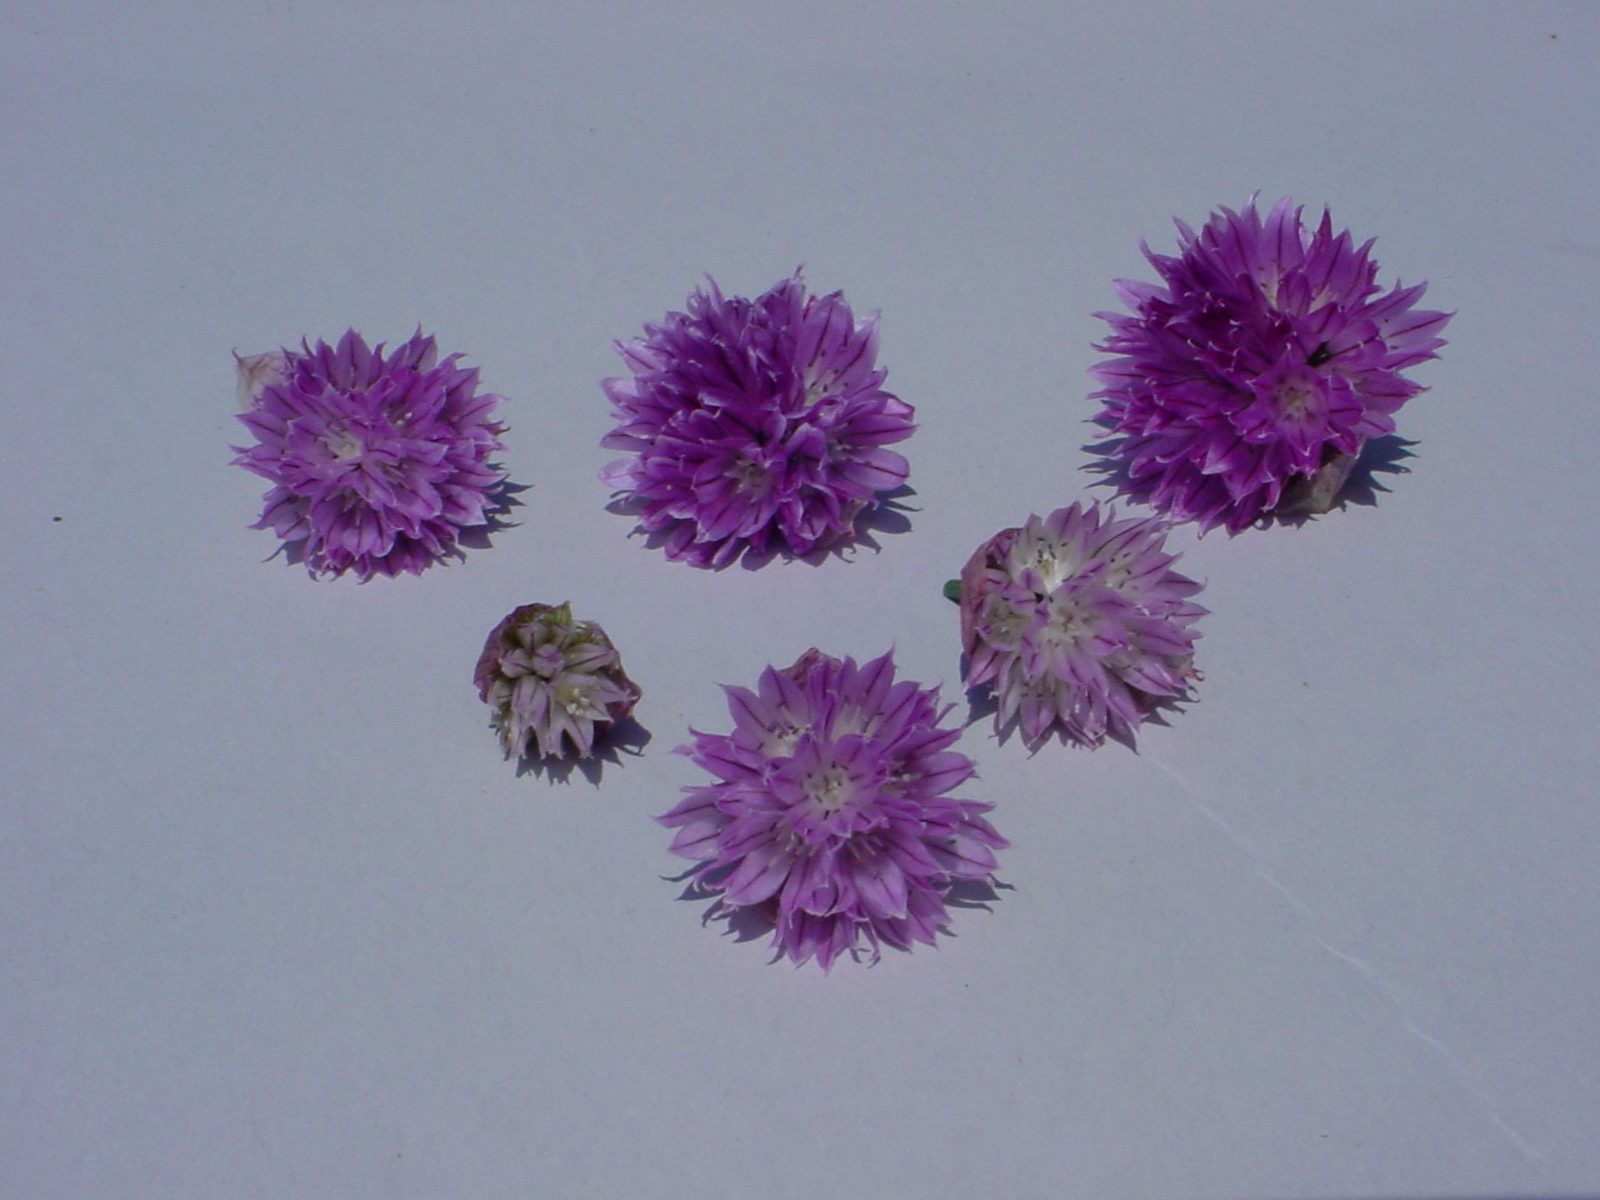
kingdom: Plantae
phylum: Tracheophyta
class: Liliopsida
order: Asparagales
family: Amaryllidaceae
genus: Allium
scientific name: Allium schoenoprasum
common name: Chives
